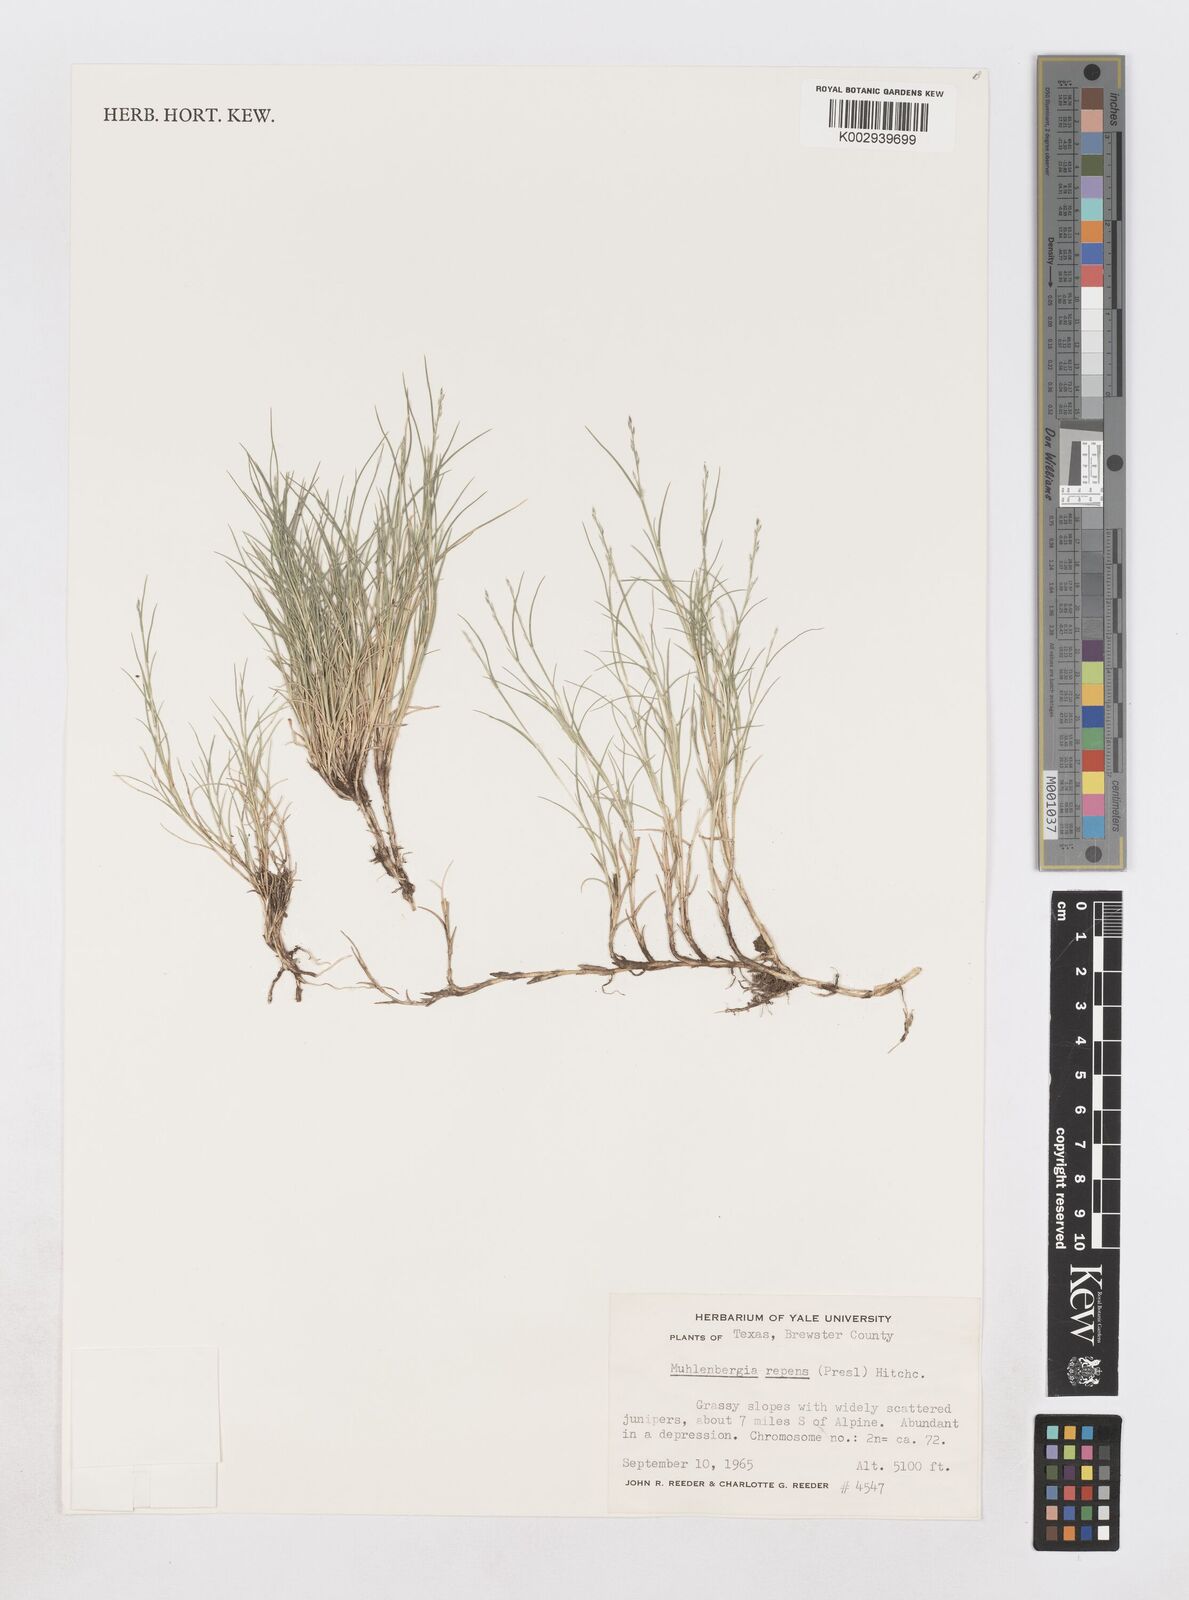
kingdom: Plantae
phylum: Tracheophyta
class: Liliopsida
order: Poales
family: Poaceae
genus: Muhlenbergia
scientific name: Muhlenbergia repens
